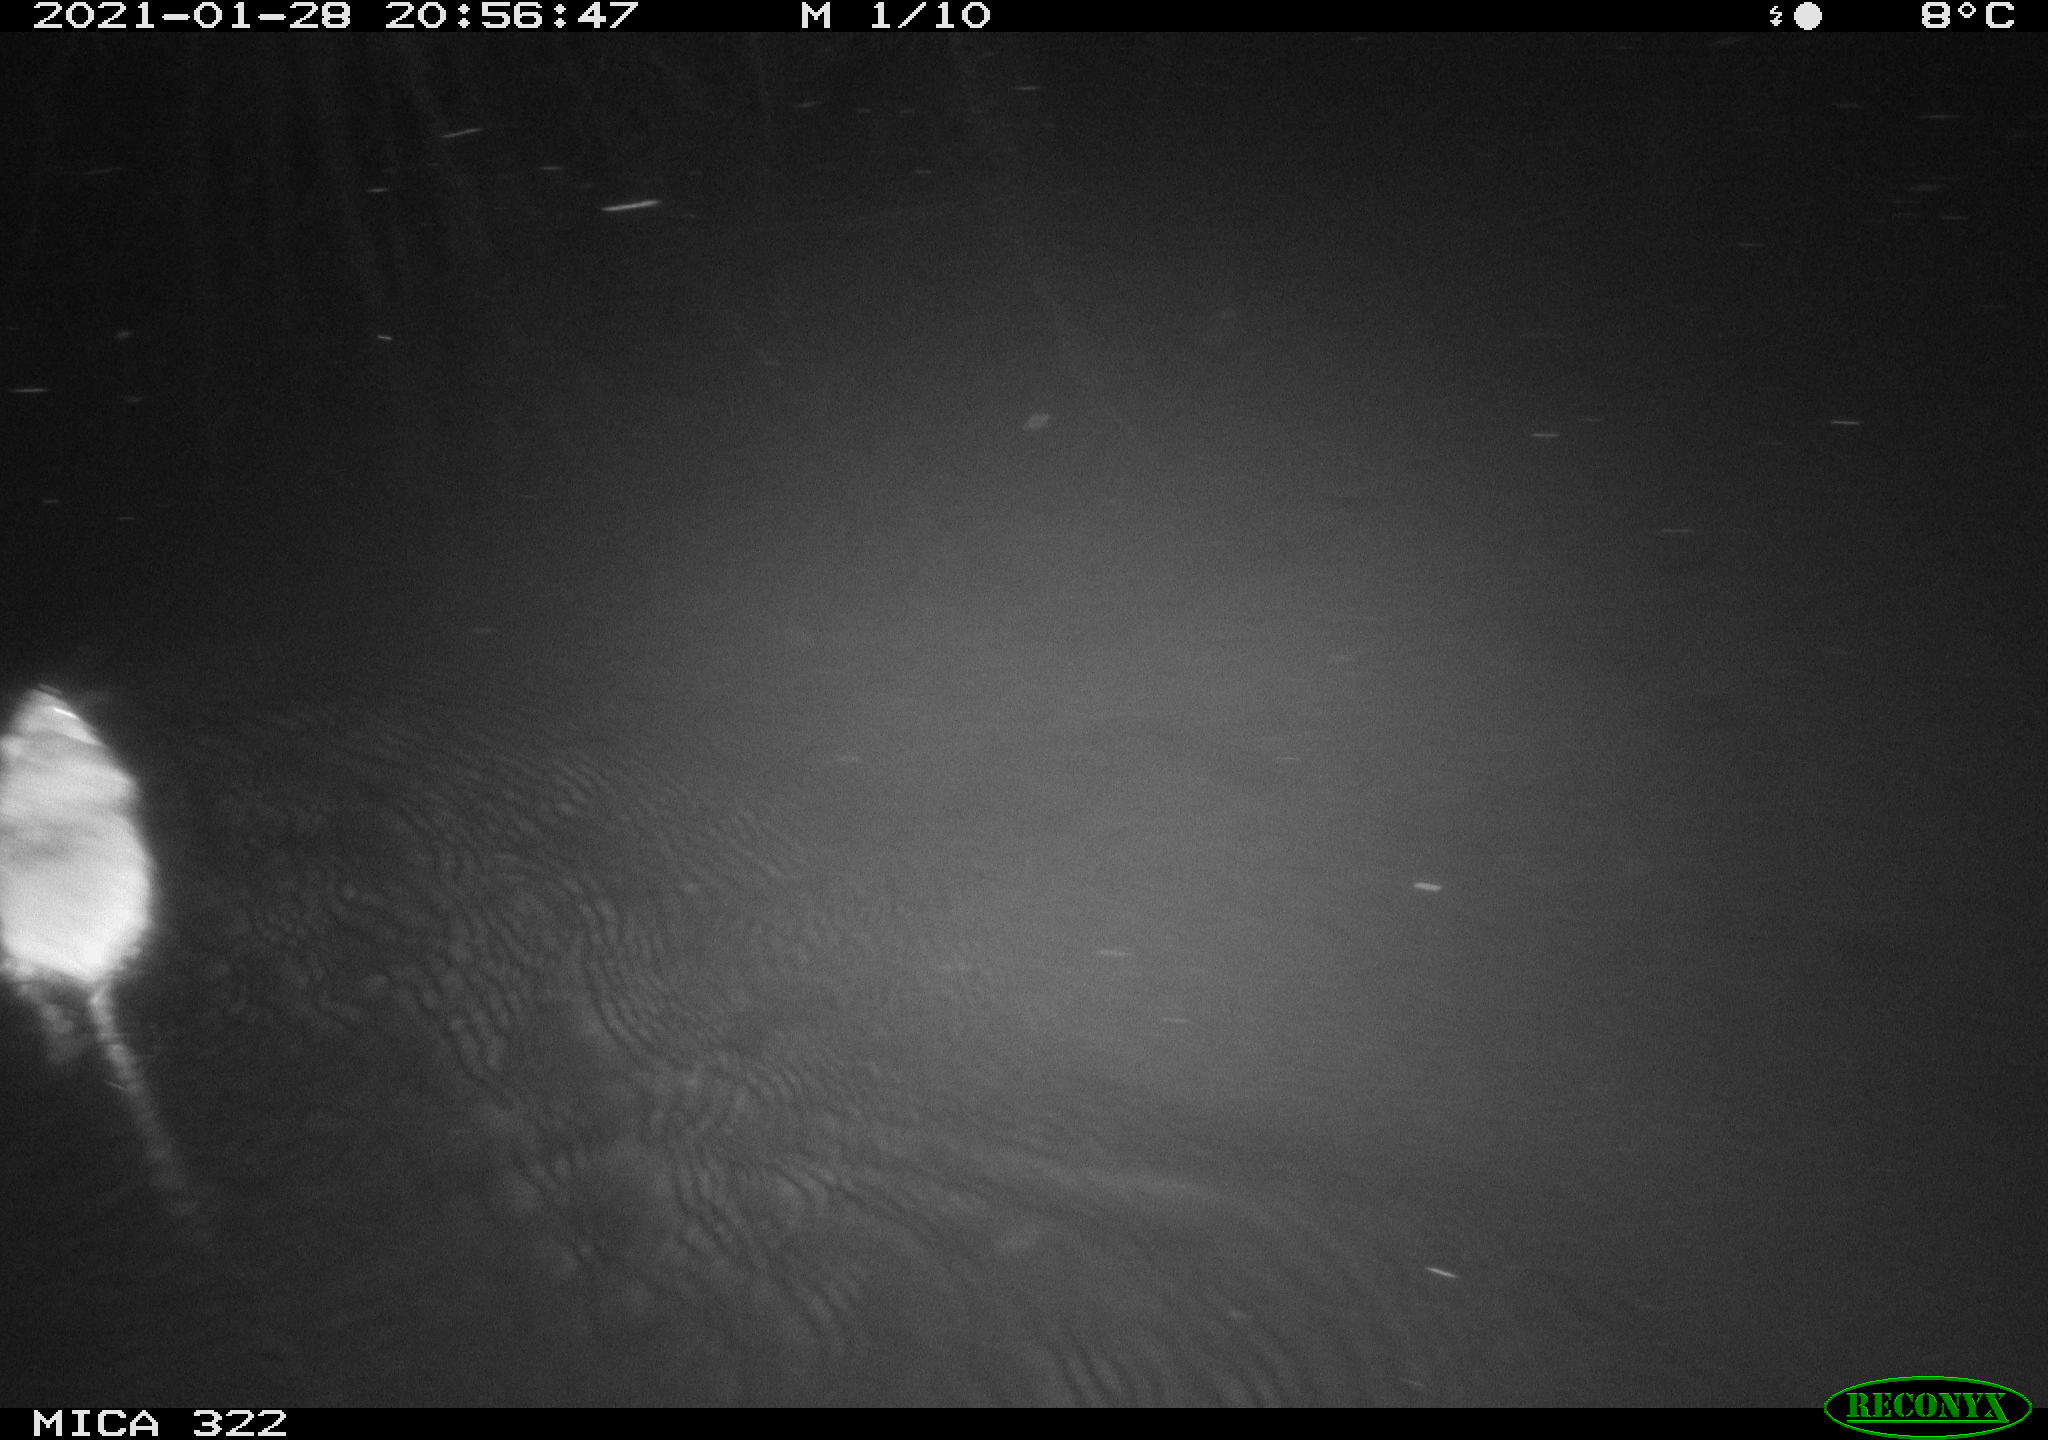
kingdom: Animalia
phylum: Chordata
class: Mammalia
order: Rodentia
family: Muridae
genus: Rattus
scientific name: Rattus norvegicus
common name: Brown rat
